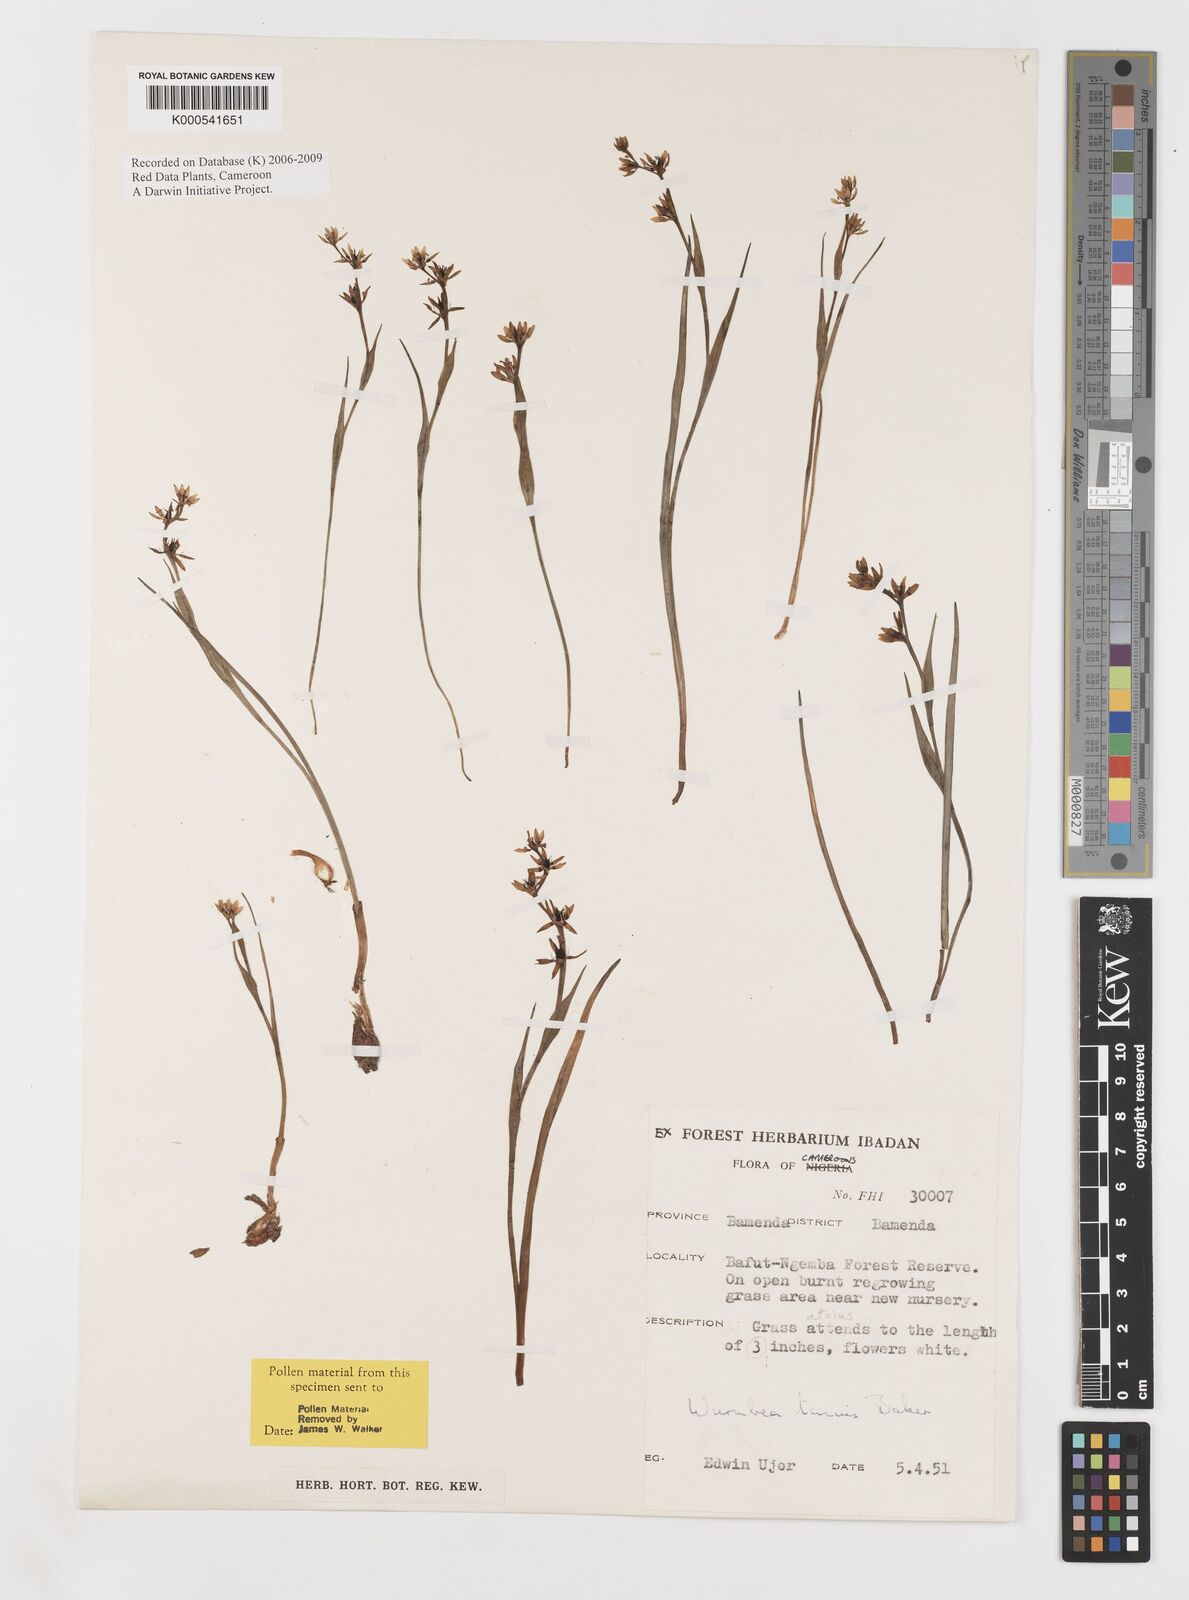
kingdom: Plantae
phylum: Tracheophyta
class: Liliopsida
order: Liliales
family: Colchicaceae
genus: Wurmbea
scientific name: Wurmbea tenuis
